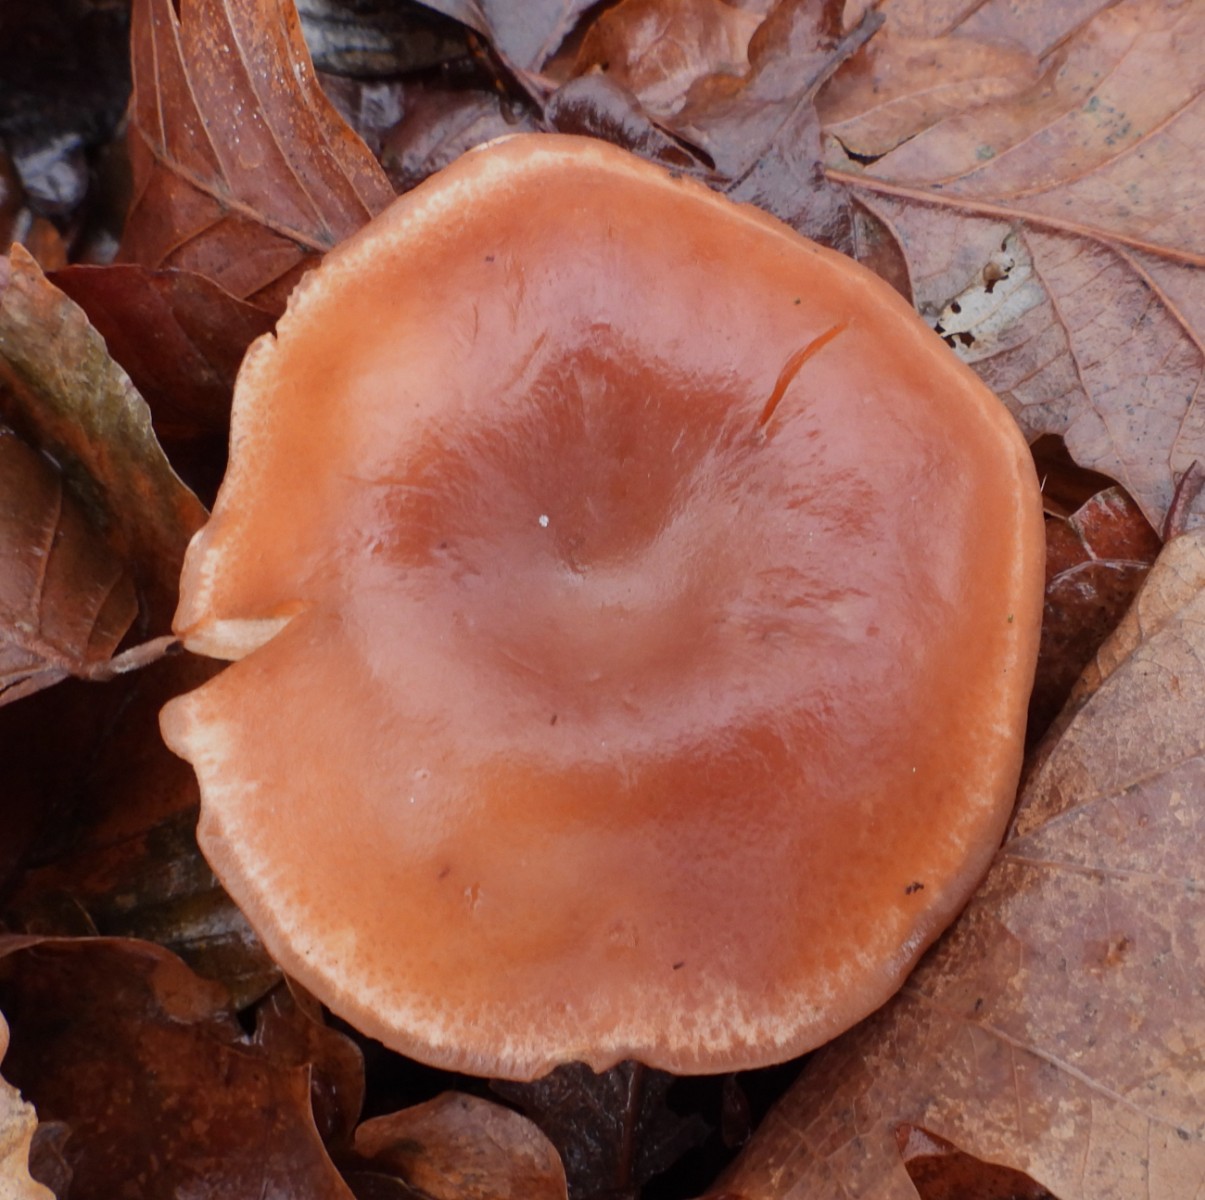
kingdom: Fungi
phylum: Basidiomycota
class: Agaricomycetes
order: Agaricales
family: Tricholomataceae
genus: Paralepista
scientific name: Paralepista flaccida
